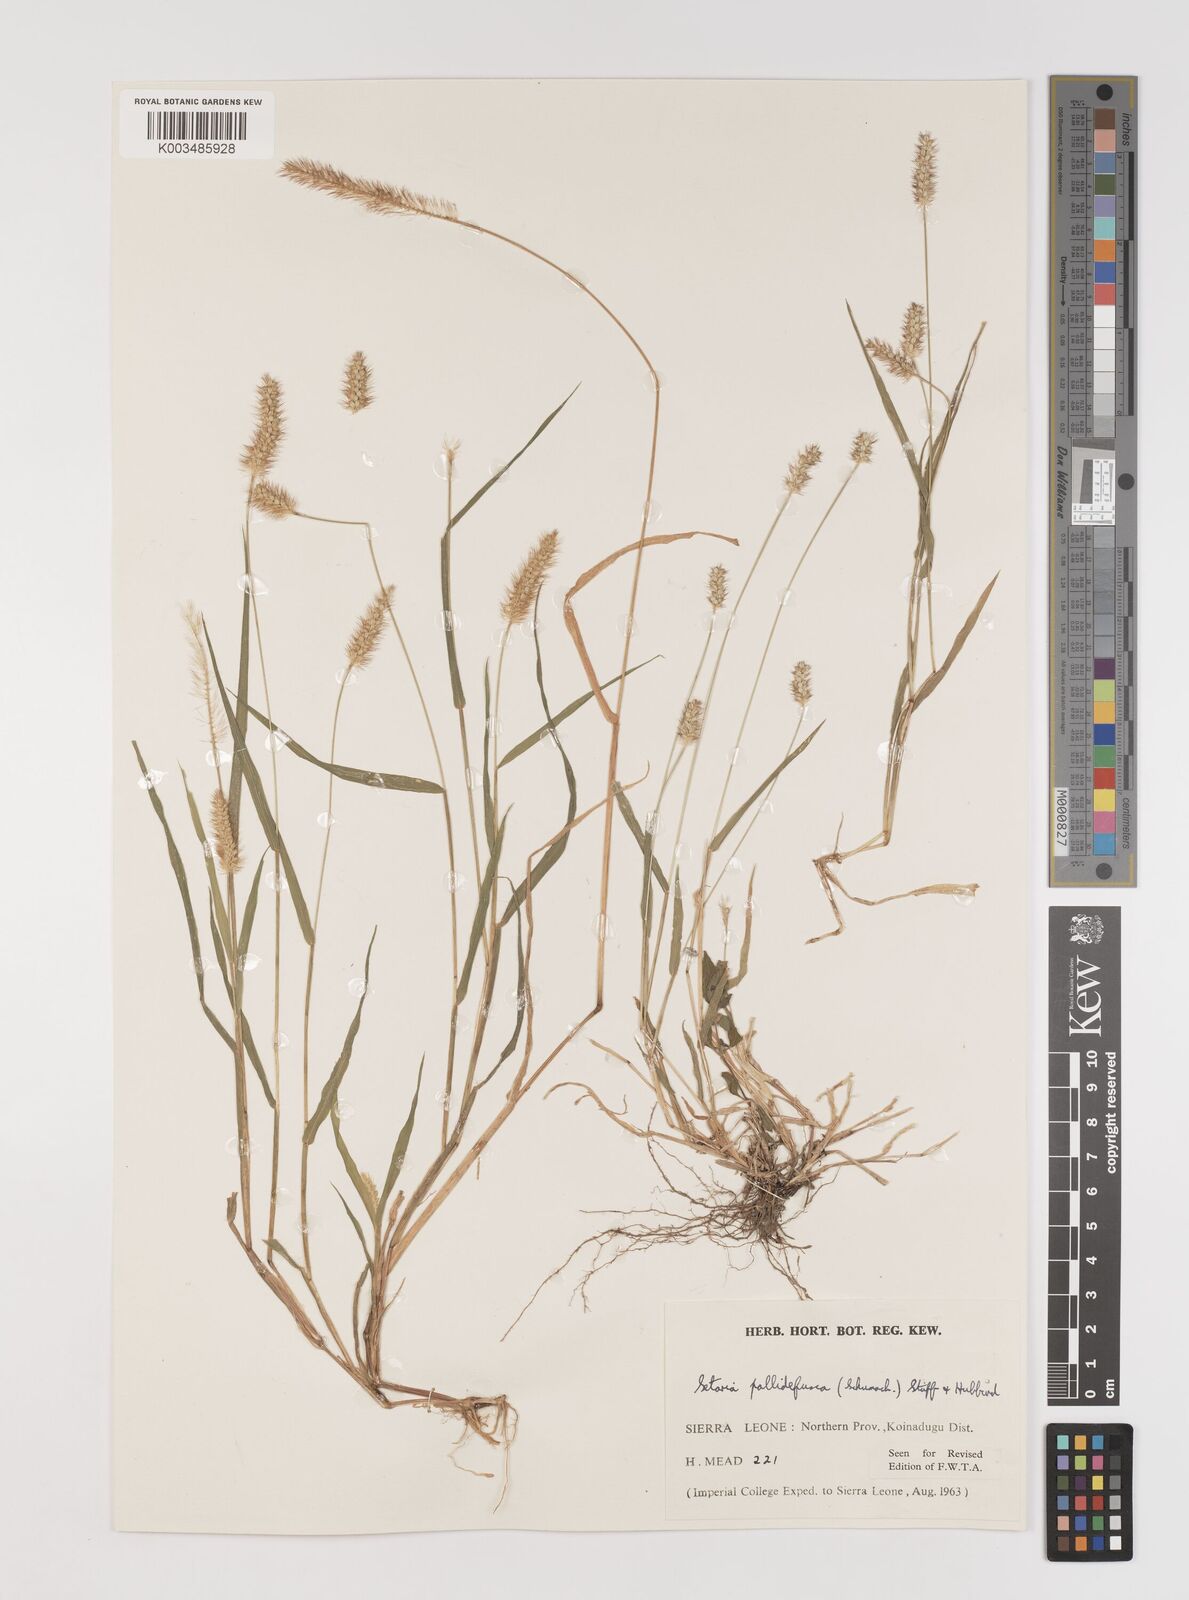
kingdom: Plantae
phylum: Tracheophyta
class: Liliopsida
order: Poales
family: Poaceae
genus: Setaria
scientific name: Setaria pumila
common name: Yellow bristle-grass
